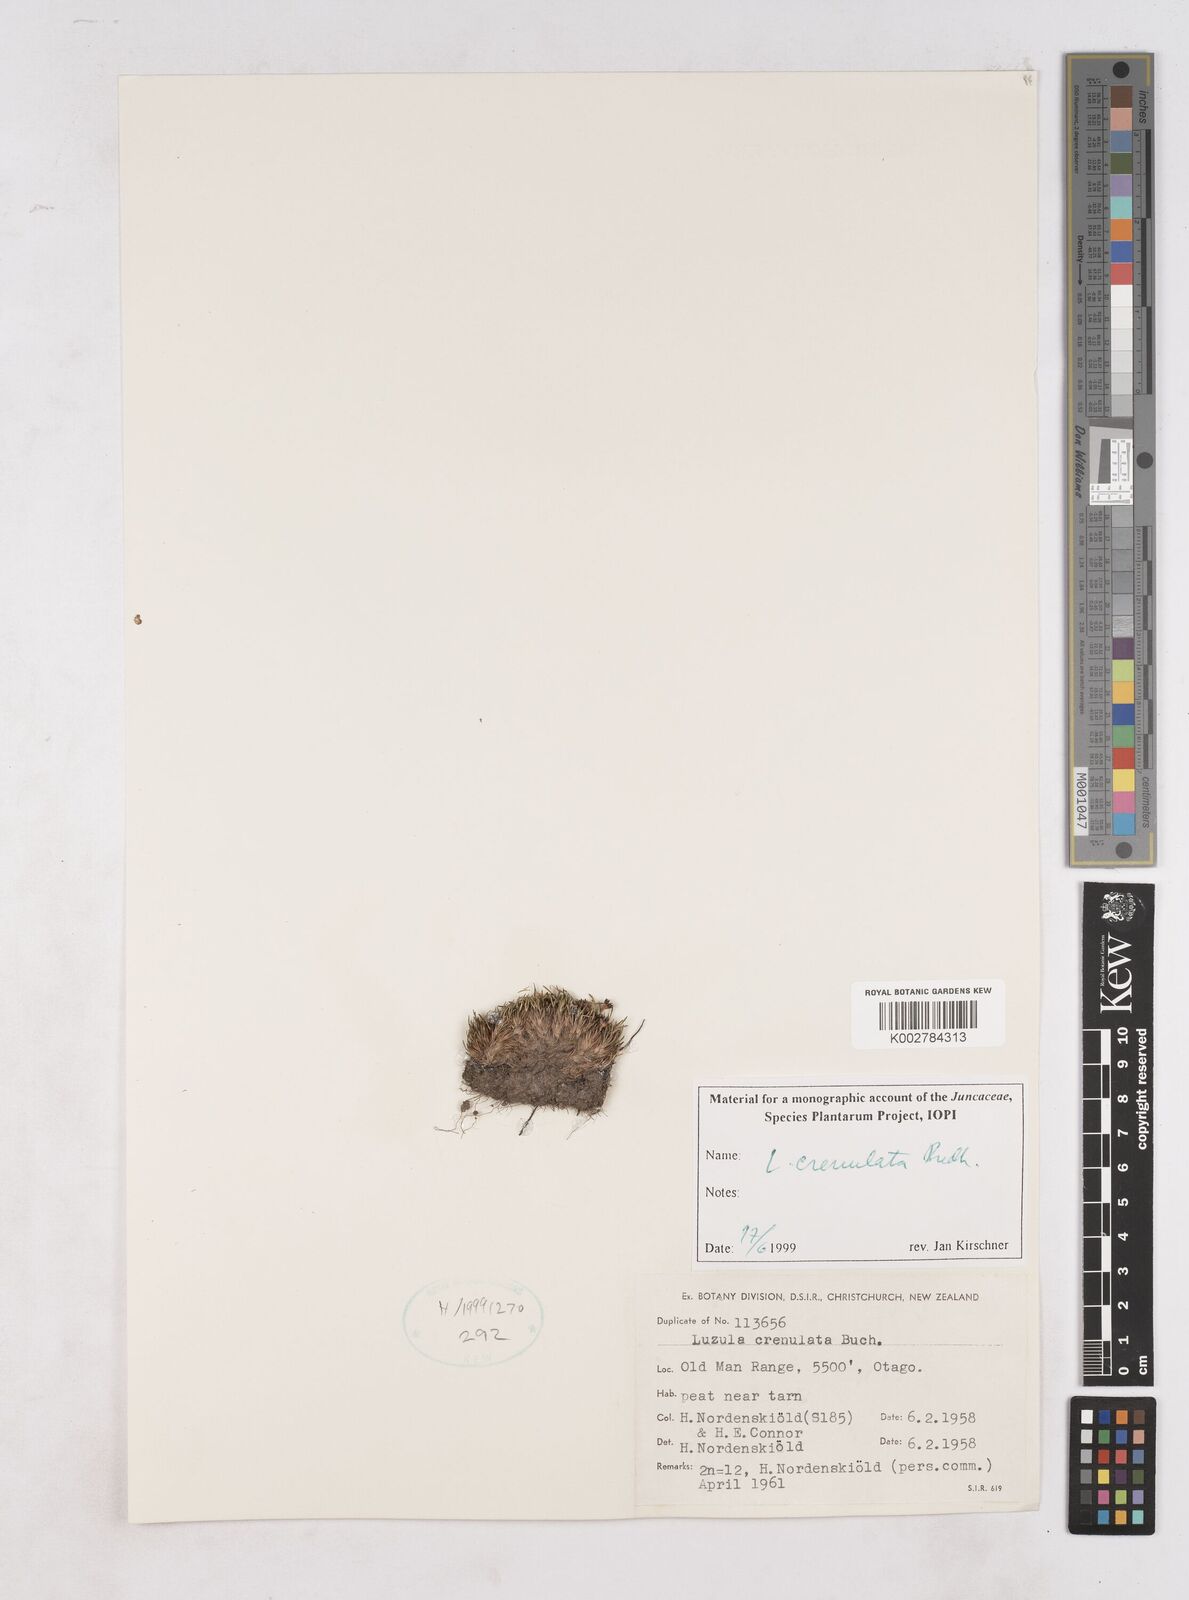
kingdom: Plantae
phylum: Tracheophyta
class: Liliopsida
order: Poales
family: Juncaceae
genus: Luzula
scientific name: Luzula crenulata
